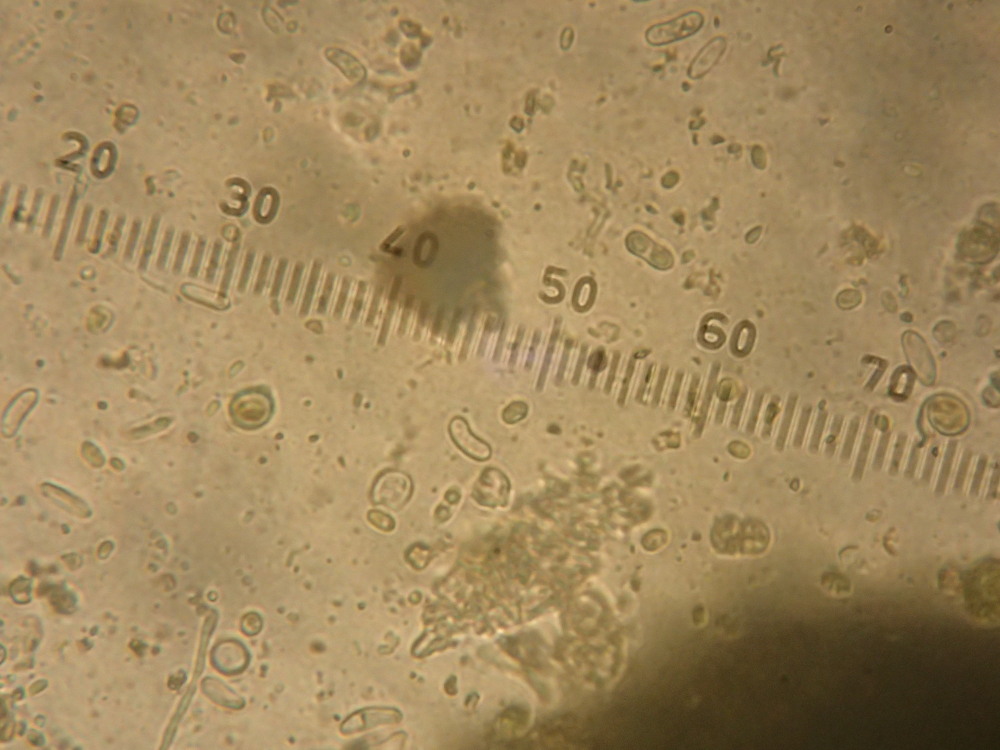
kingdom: Fungi
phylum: Ascomycota
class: Candelariomycetes
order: Candelariales
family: Candelariaceae
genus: Candelariella
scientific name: Candelariella vitellina
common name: almindelig æggeblommelav
